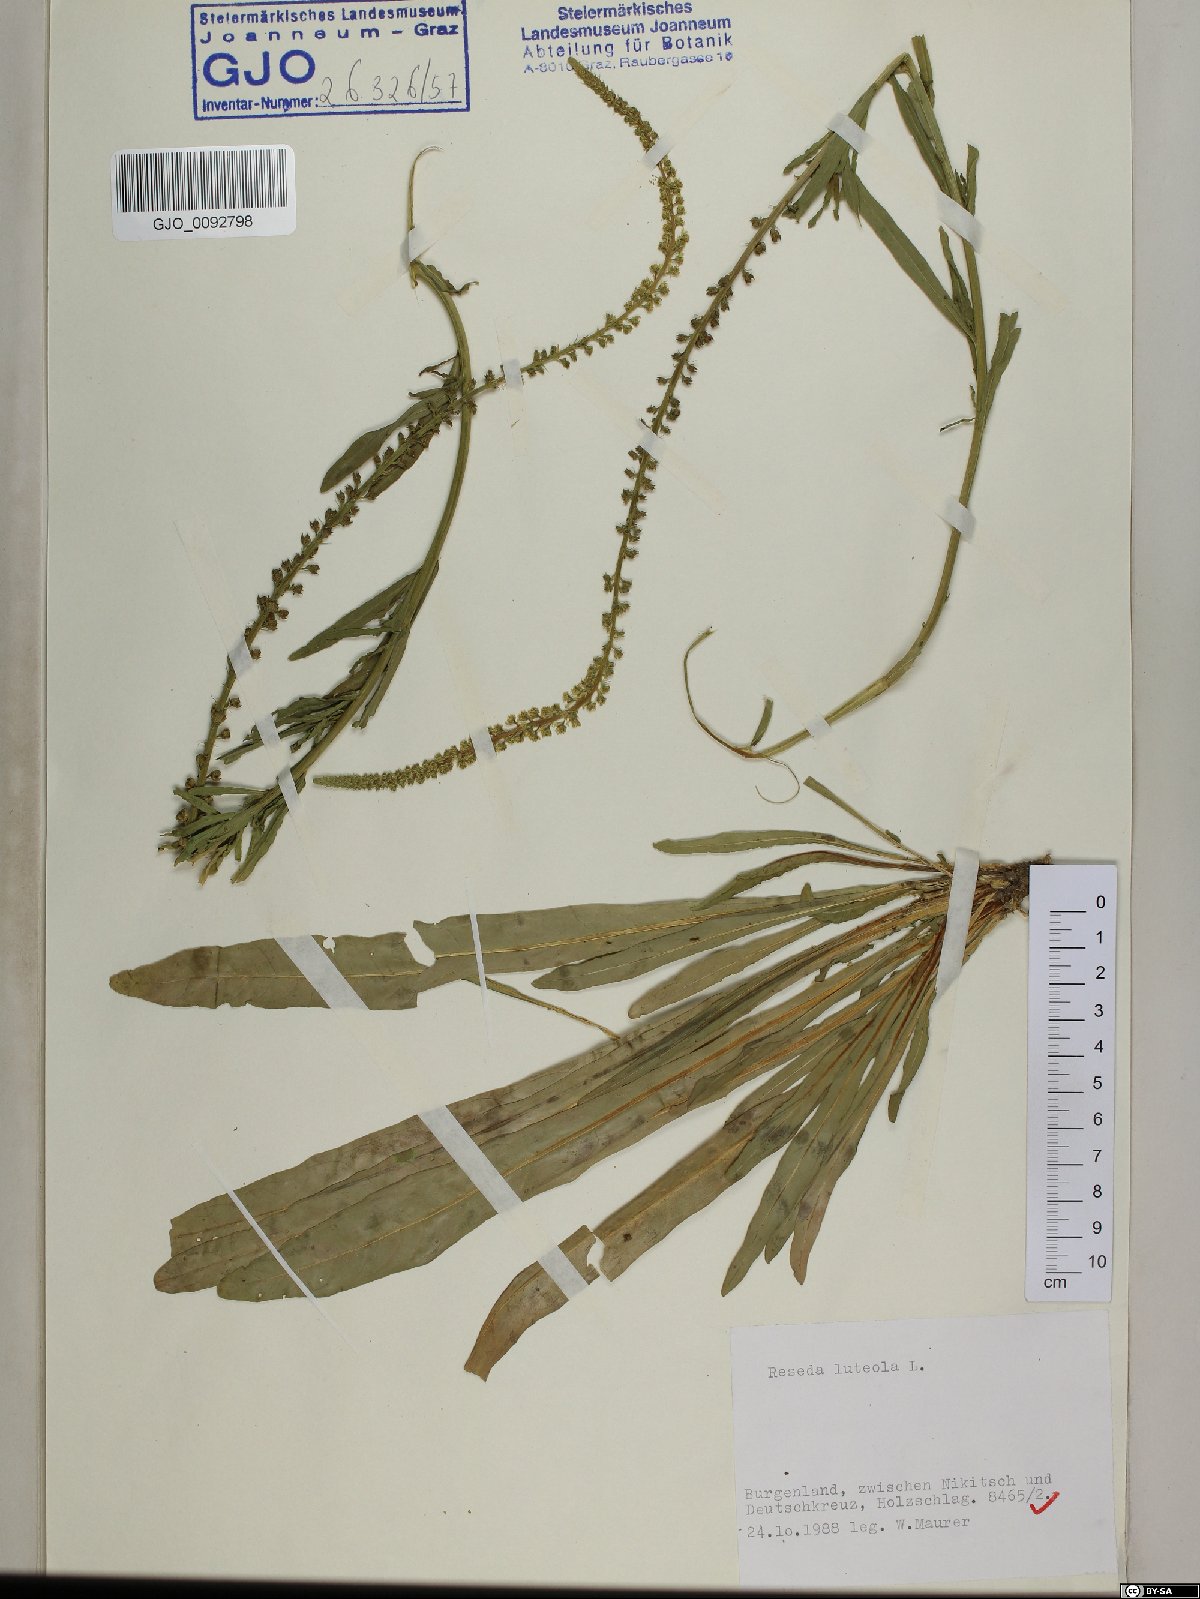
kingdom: Plantae
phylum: Tracheophyta
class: Magnoliopsida
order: Brassicales
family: Resedaceae
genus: Reseda
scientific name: Reseda luteola
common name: Weld
